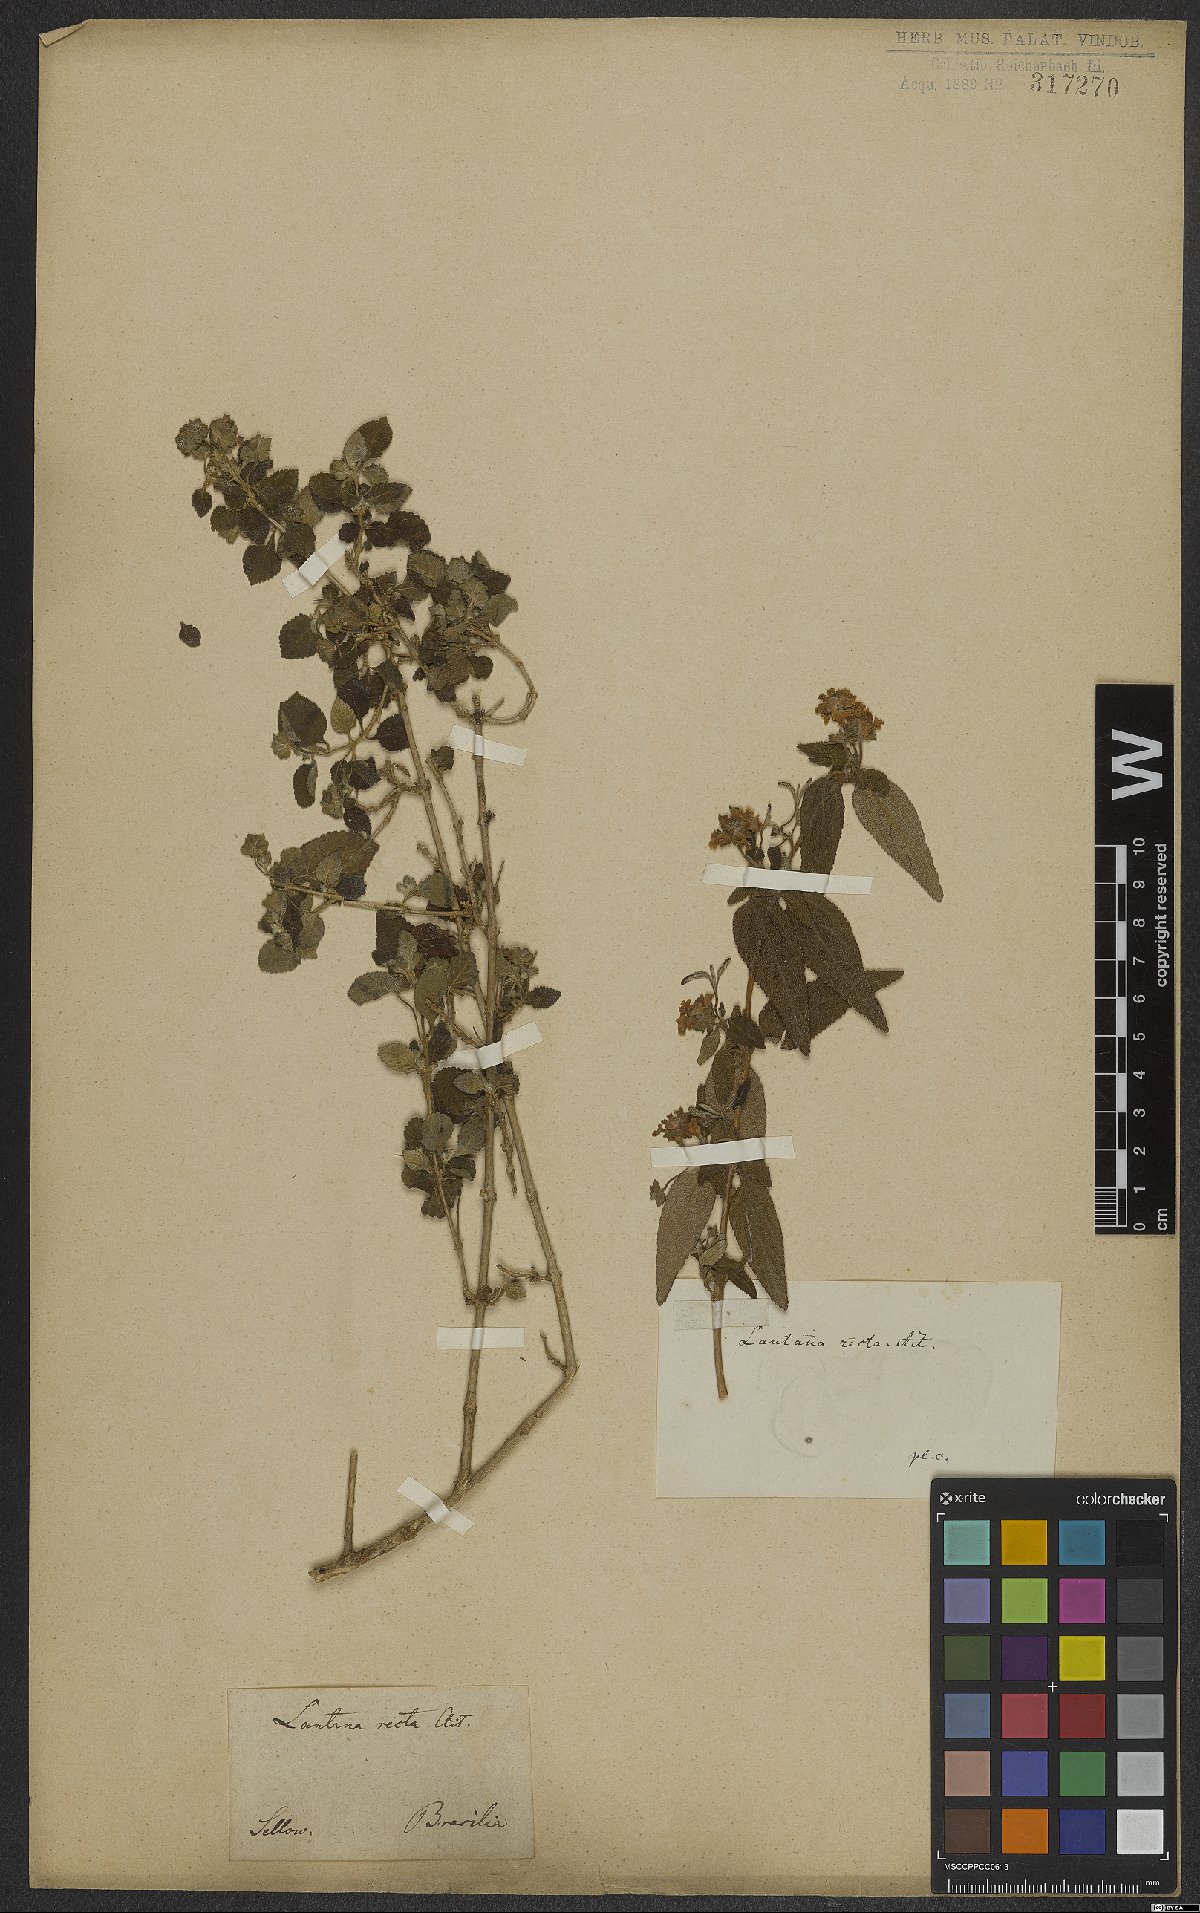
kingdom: Plantae
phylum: Tracheophyta
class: Magnoliopsida
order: Lamiales
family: Verbenaceae
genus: Lantana
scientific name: Lantana fucata
